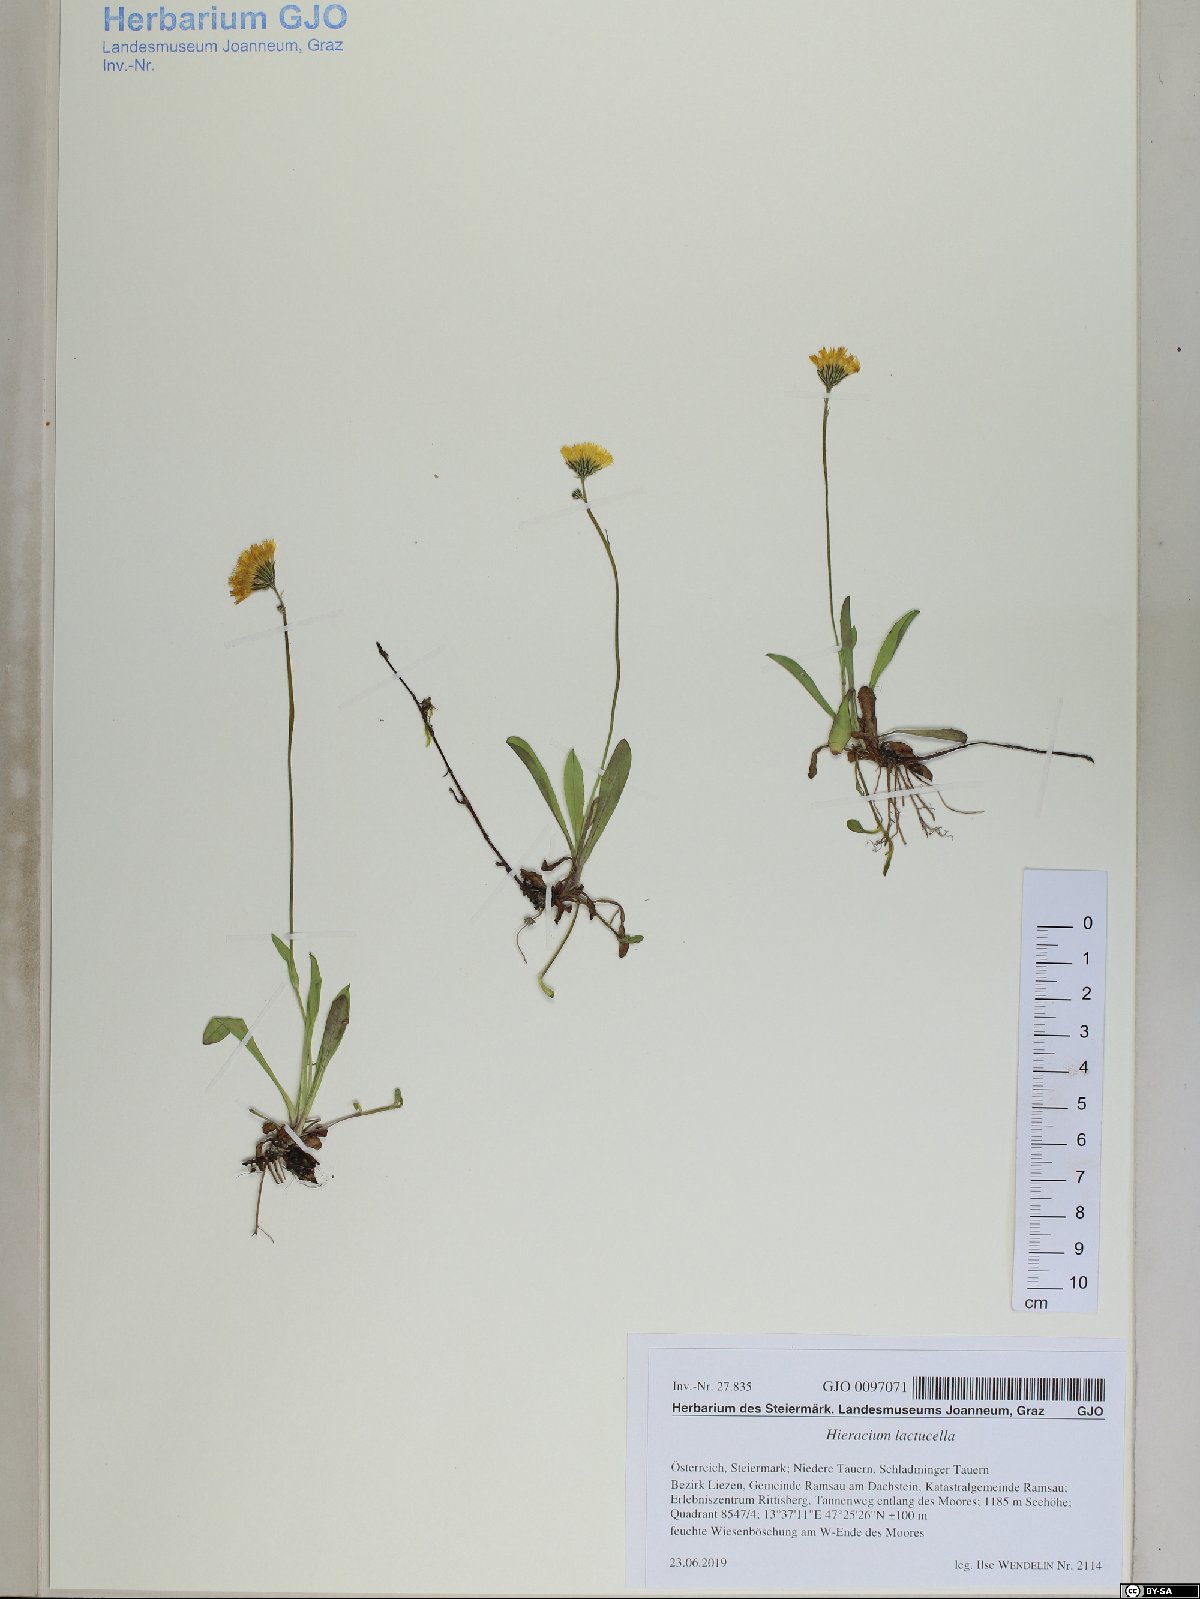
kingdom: Plantae
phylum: Tracheophyta
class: Magnoliopsida
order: Asterales
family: Asteraceae
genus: Pilosella
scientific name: Pilosella lactucella
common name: Glaucous fox-and-cubs
